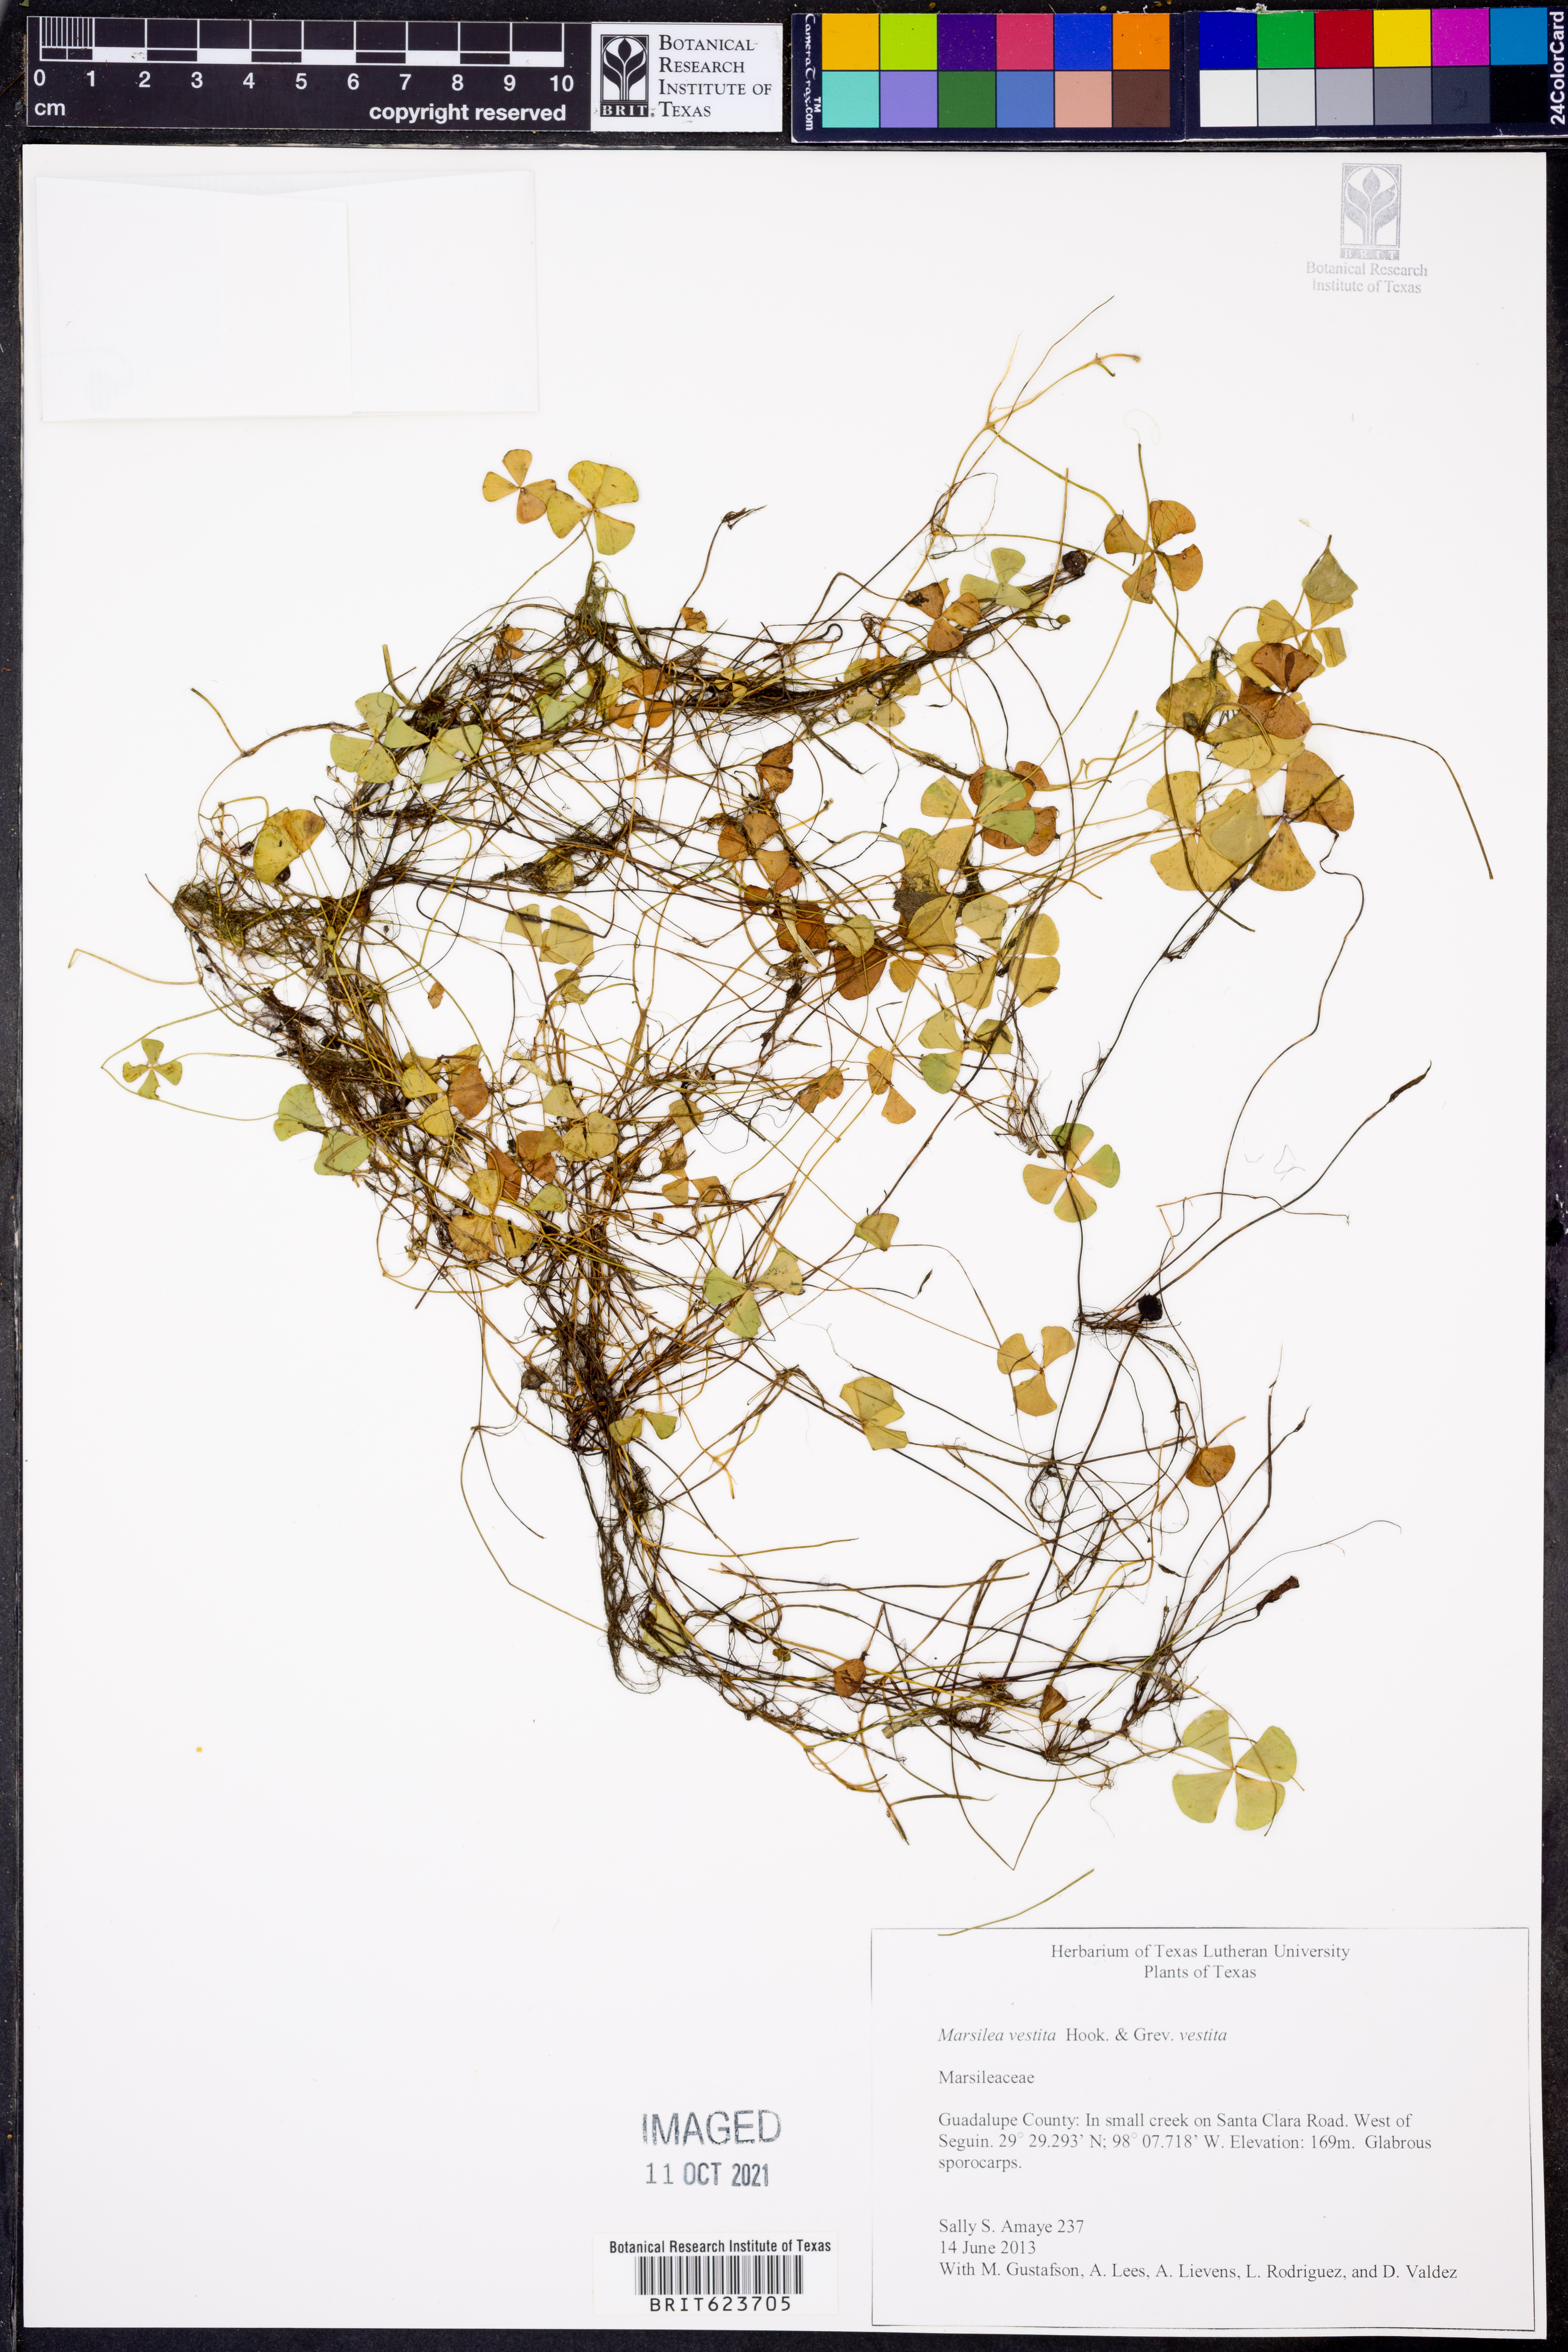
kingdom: Plantae
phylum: Tracheophyta
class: Polypodiopsida
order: Salviniales
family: Marsileaceae
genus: Marsilea
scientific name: Marsilea vestita
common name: Hooked-pepperwort
